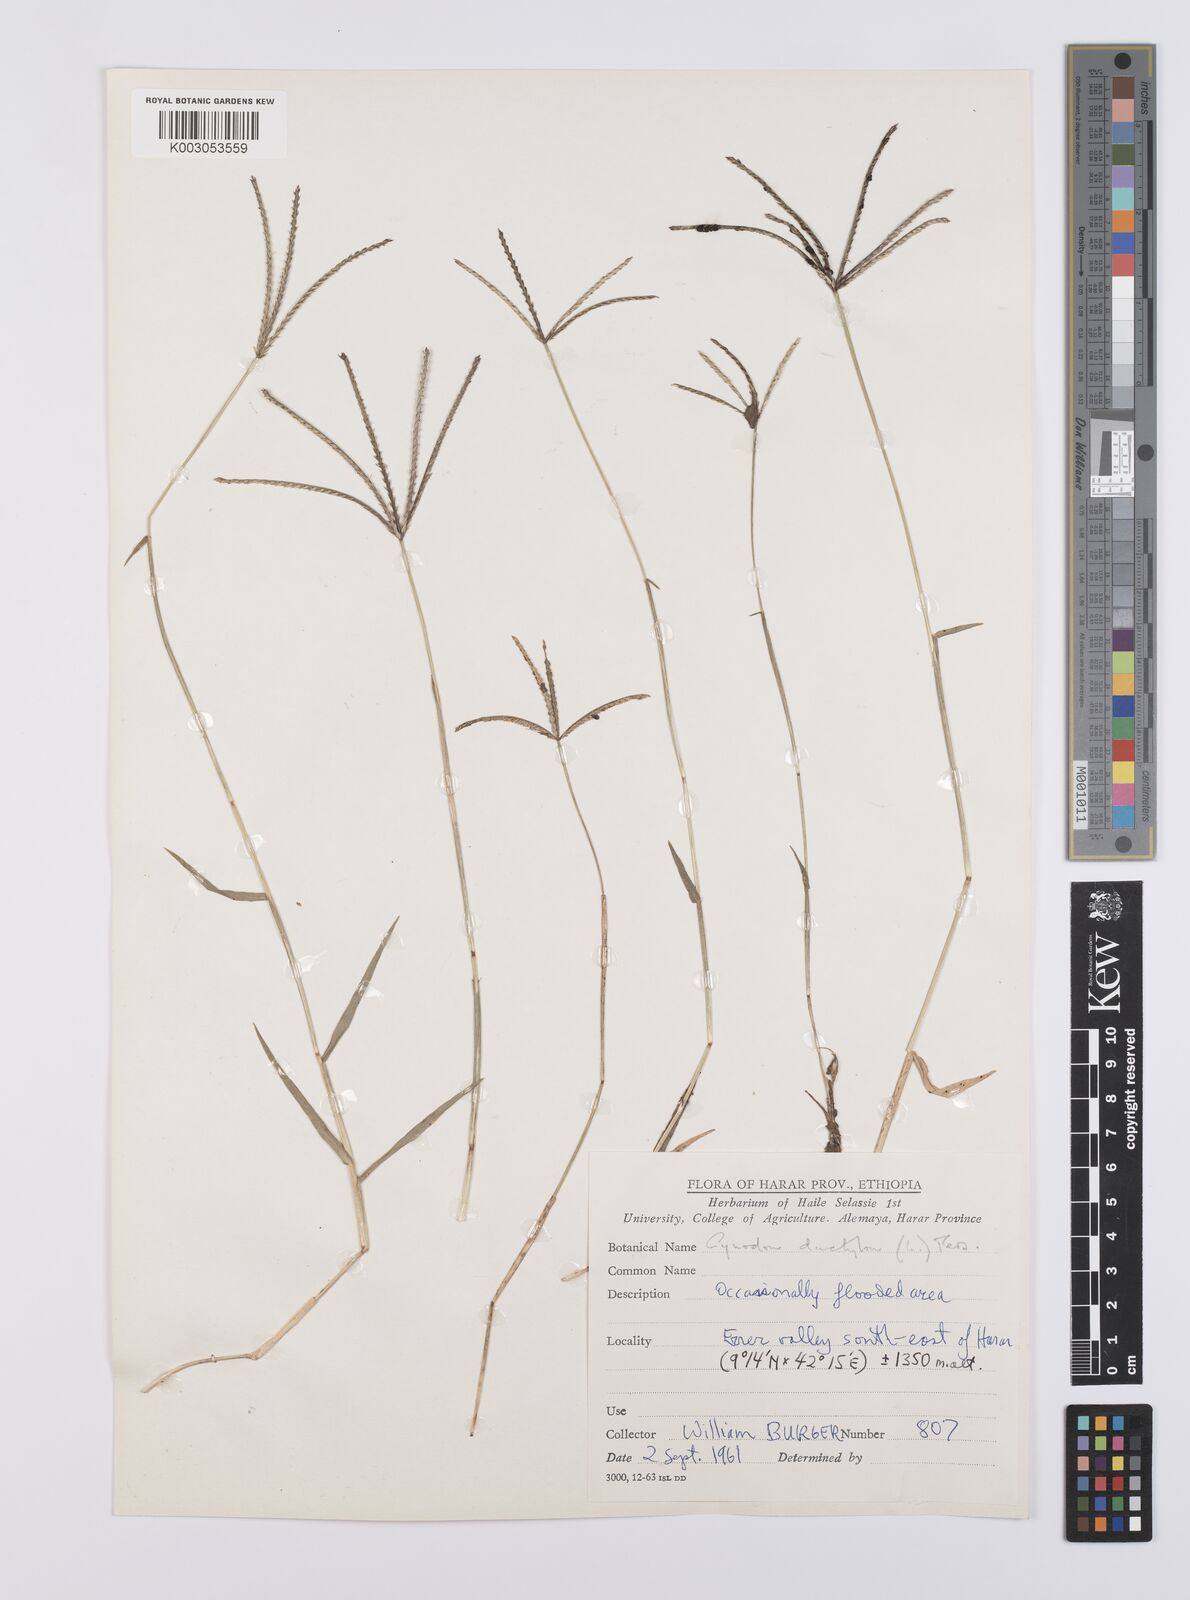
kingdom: Plantae
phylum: Tracheophyta
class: Liliopsida
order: Poales
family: Poaceae
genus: Cynodon
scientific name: Cynodon dactylon
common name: Bermuda grass
